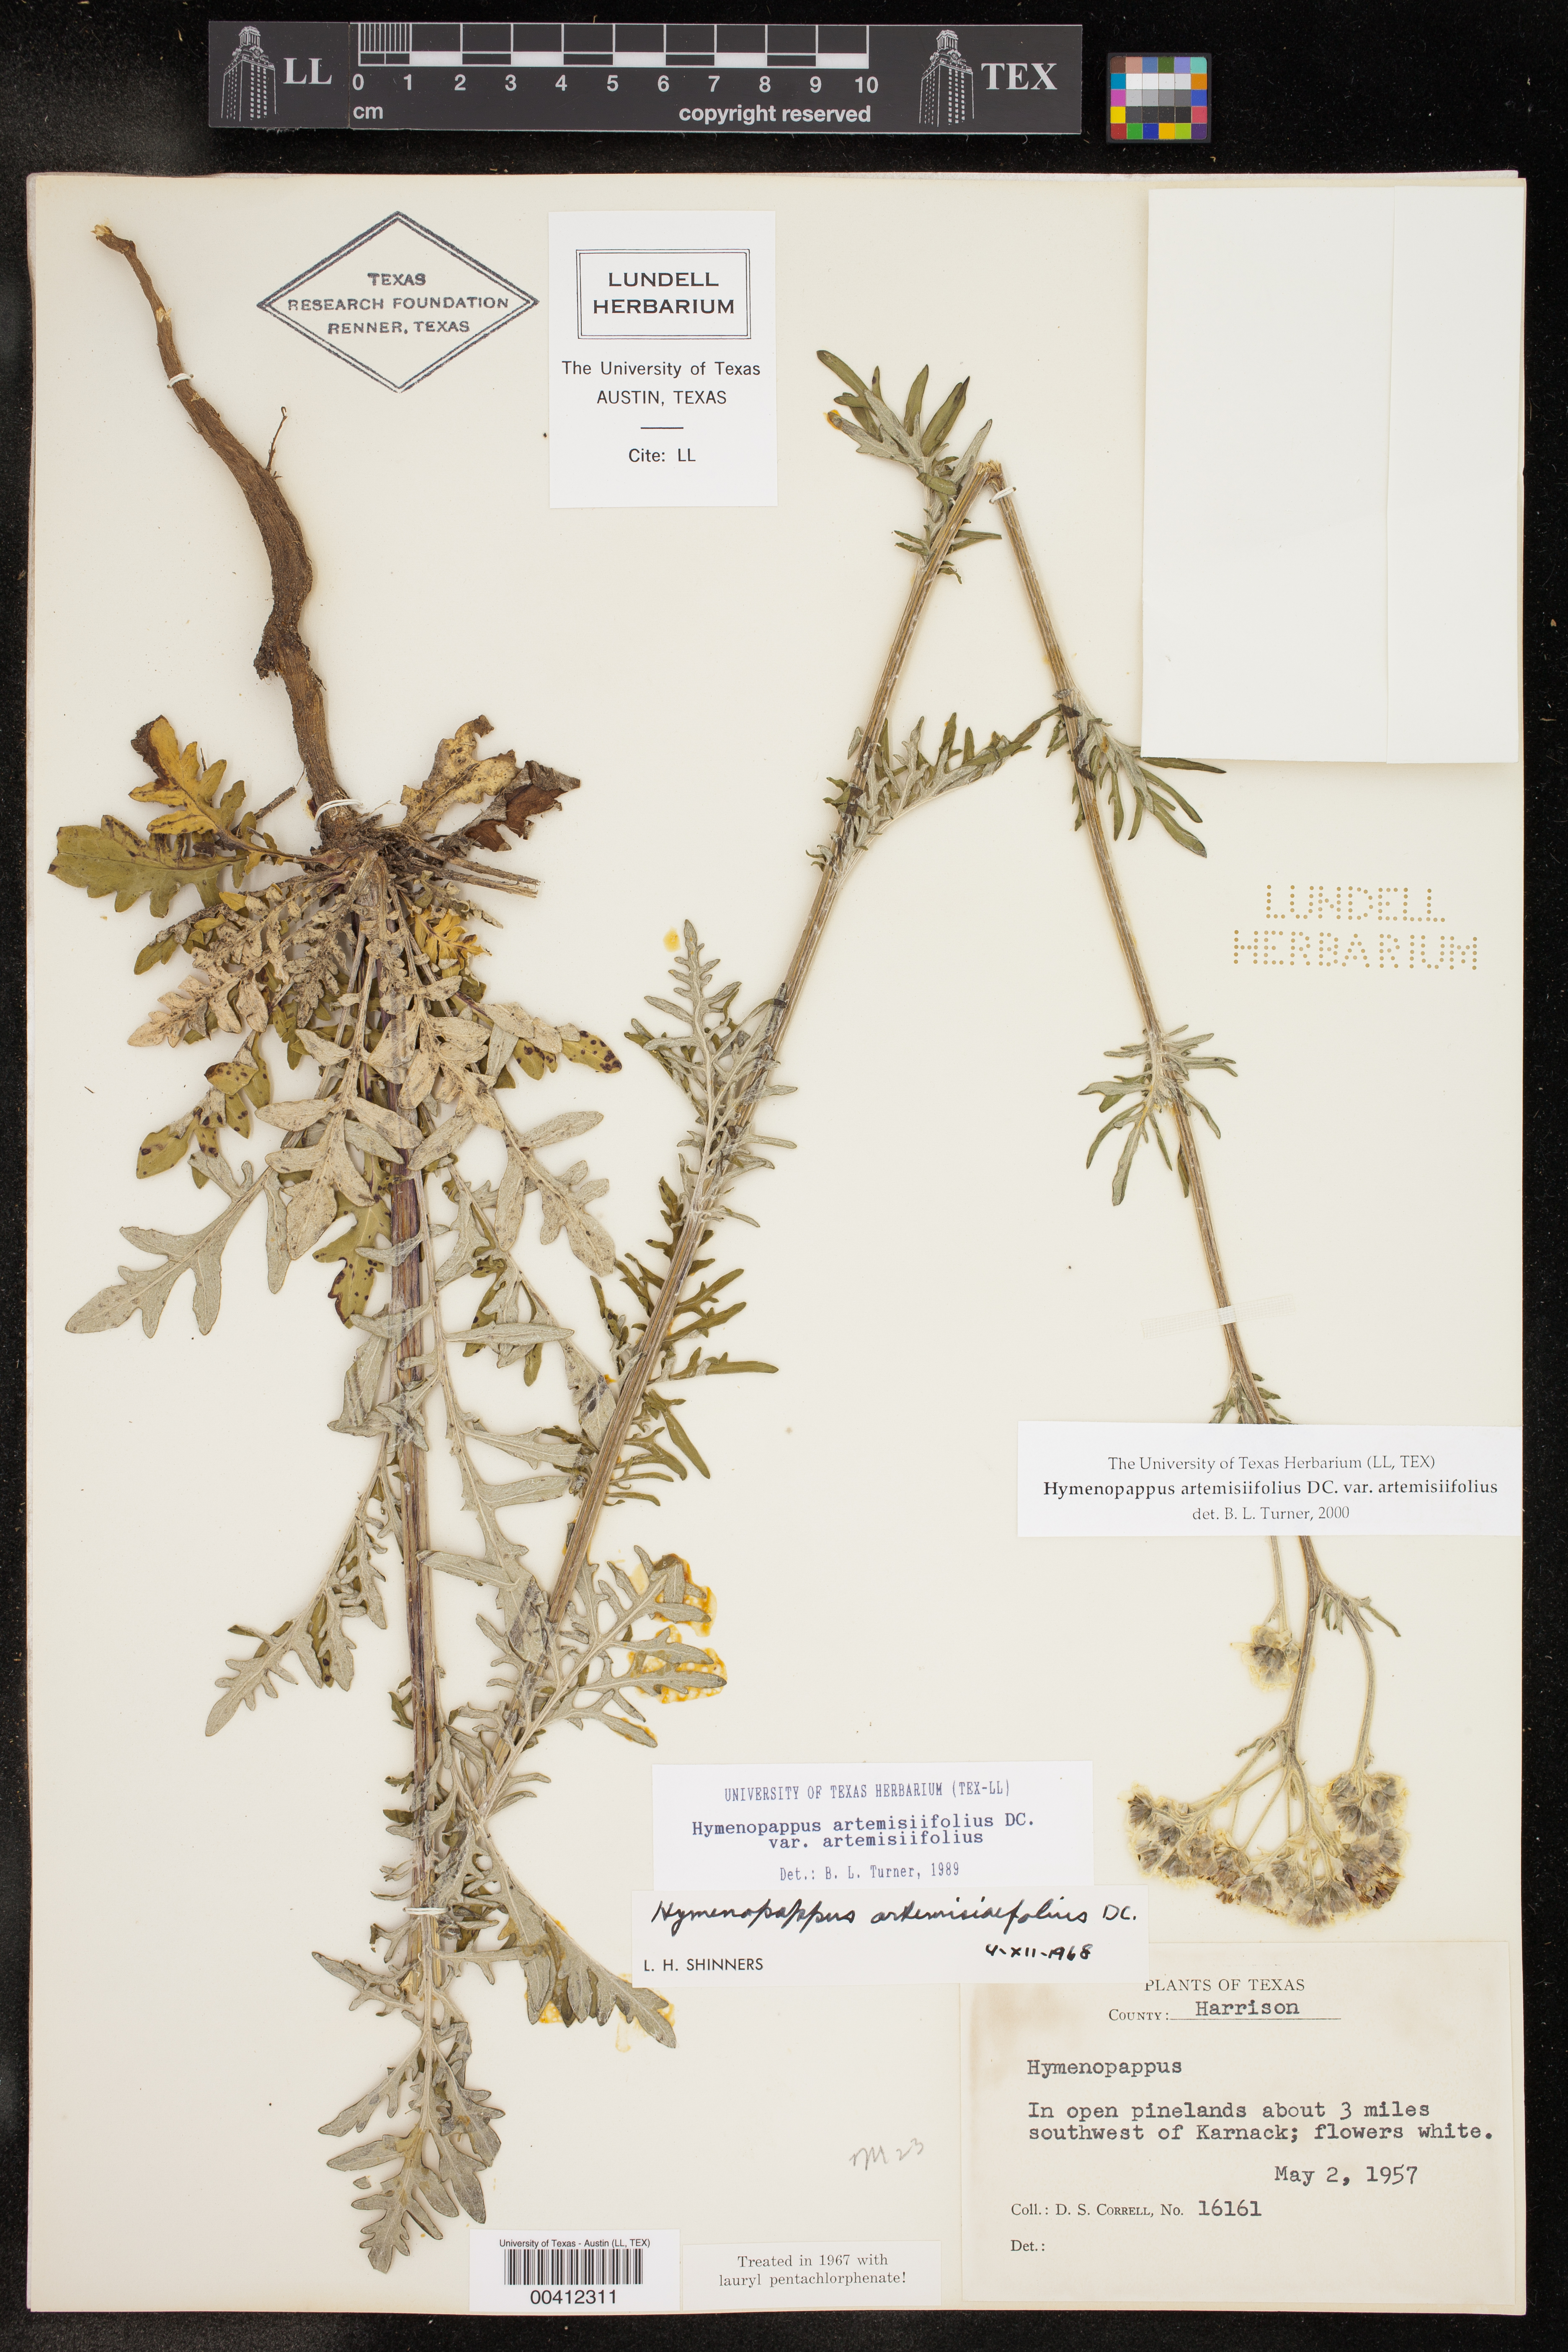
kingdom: Plantae
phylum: Tracheophyta
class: Magnoliopsida
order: Asterales
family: Asteraceae
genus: Hymenopappus
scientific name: Hymenopappus artemisiifolius
